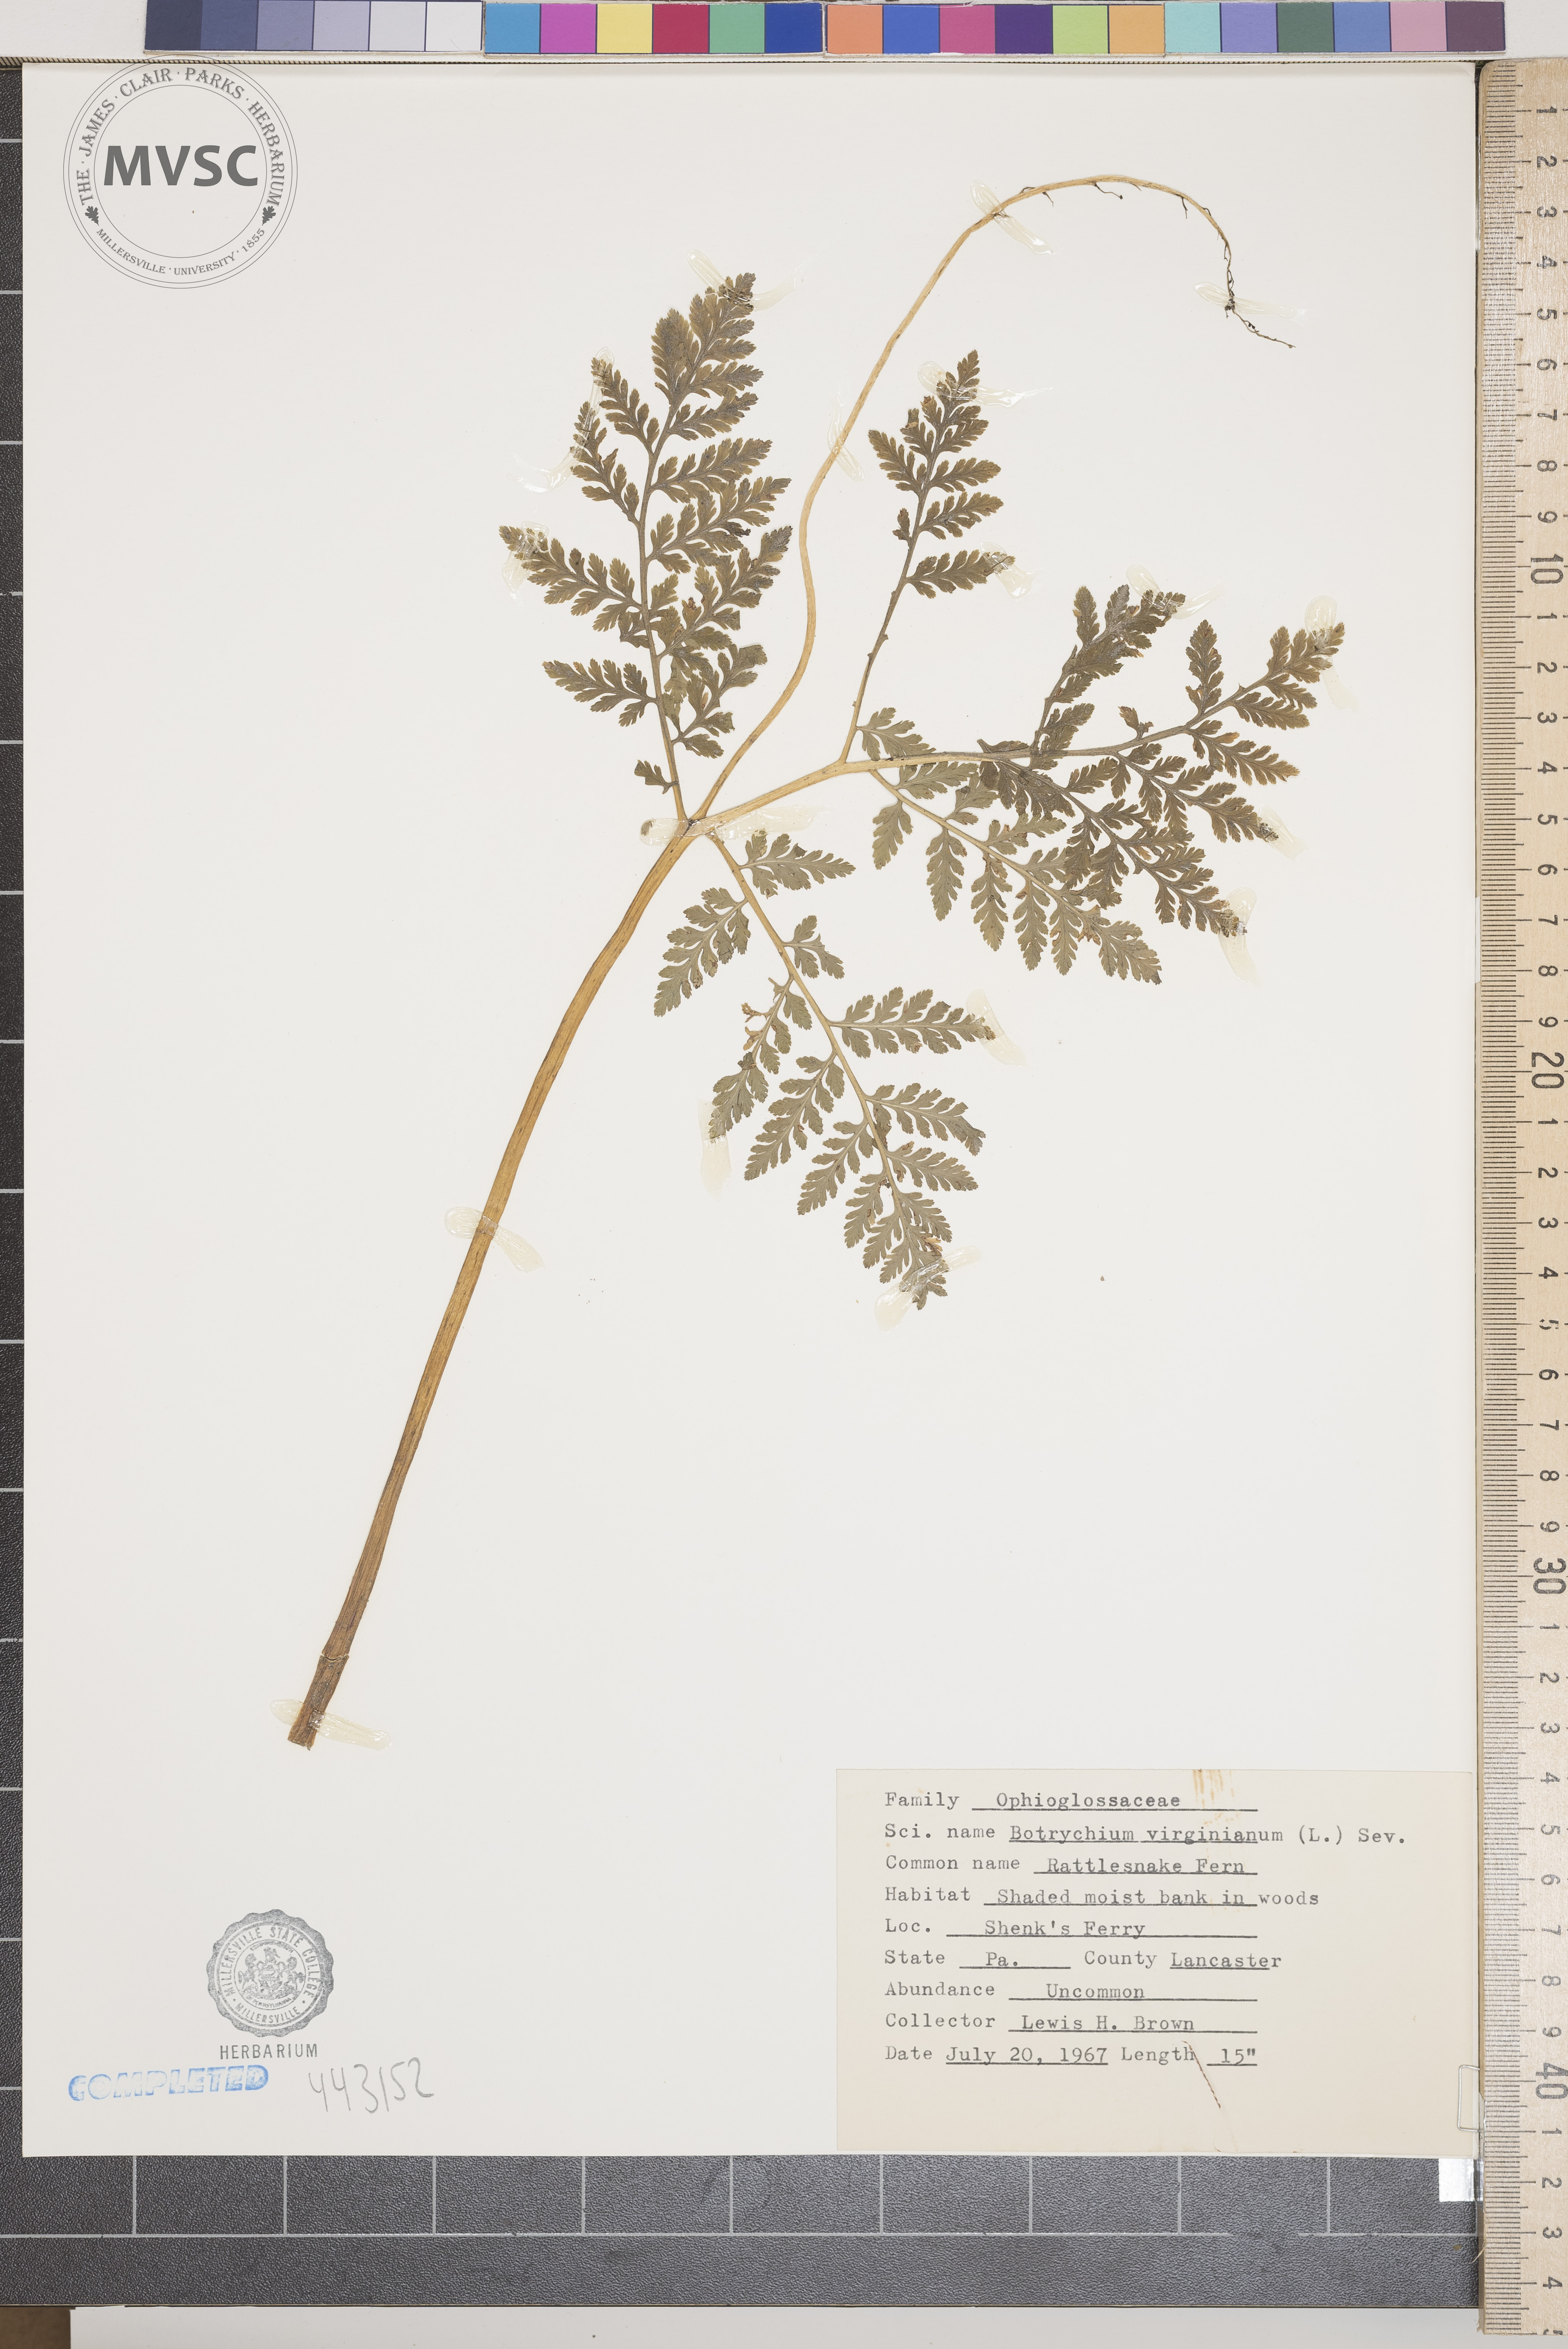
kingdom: Plantae
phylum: Tracheophyta
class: Polypodiopsida
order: Ophioglossales
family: Ophioglossaceae
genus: Botrypus
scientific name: Botrypus virginianus
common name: Rattlesnake fern
